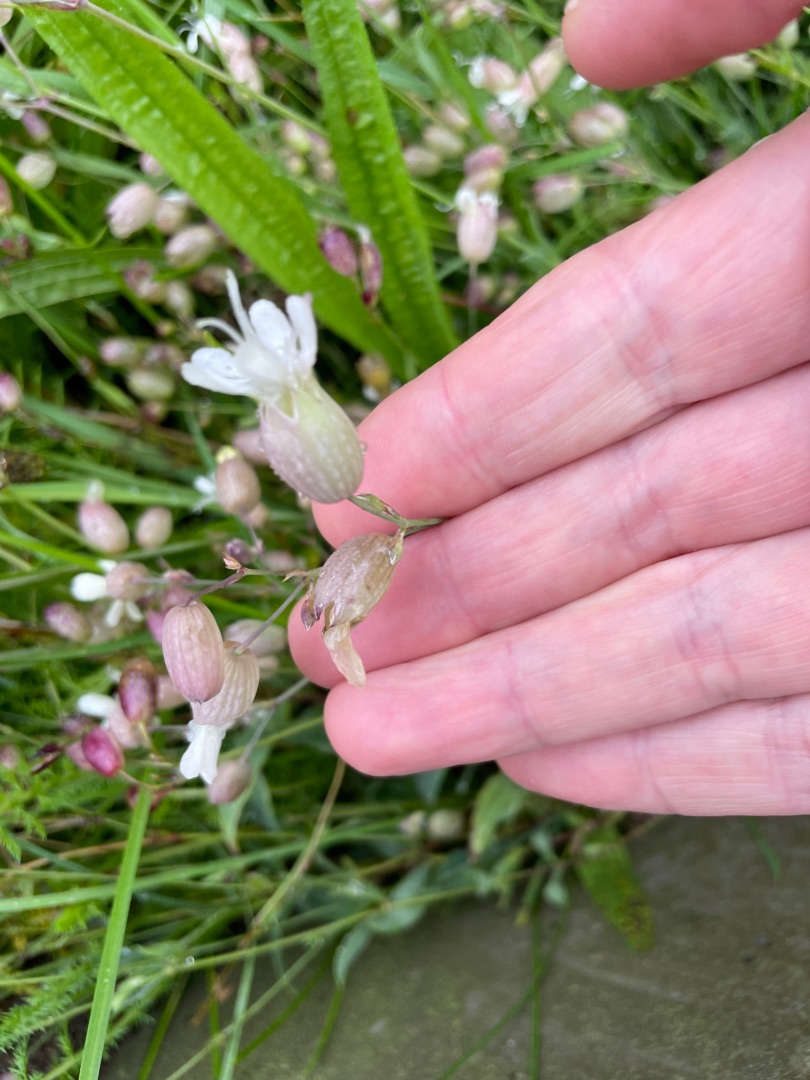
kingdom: Plantae
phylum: Tracheophyta
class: Magnoliopsida
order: Caryophyllales
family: Caryophyllaceae
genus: Silene
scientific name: Silene vulgaris
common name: Blæresmælde
